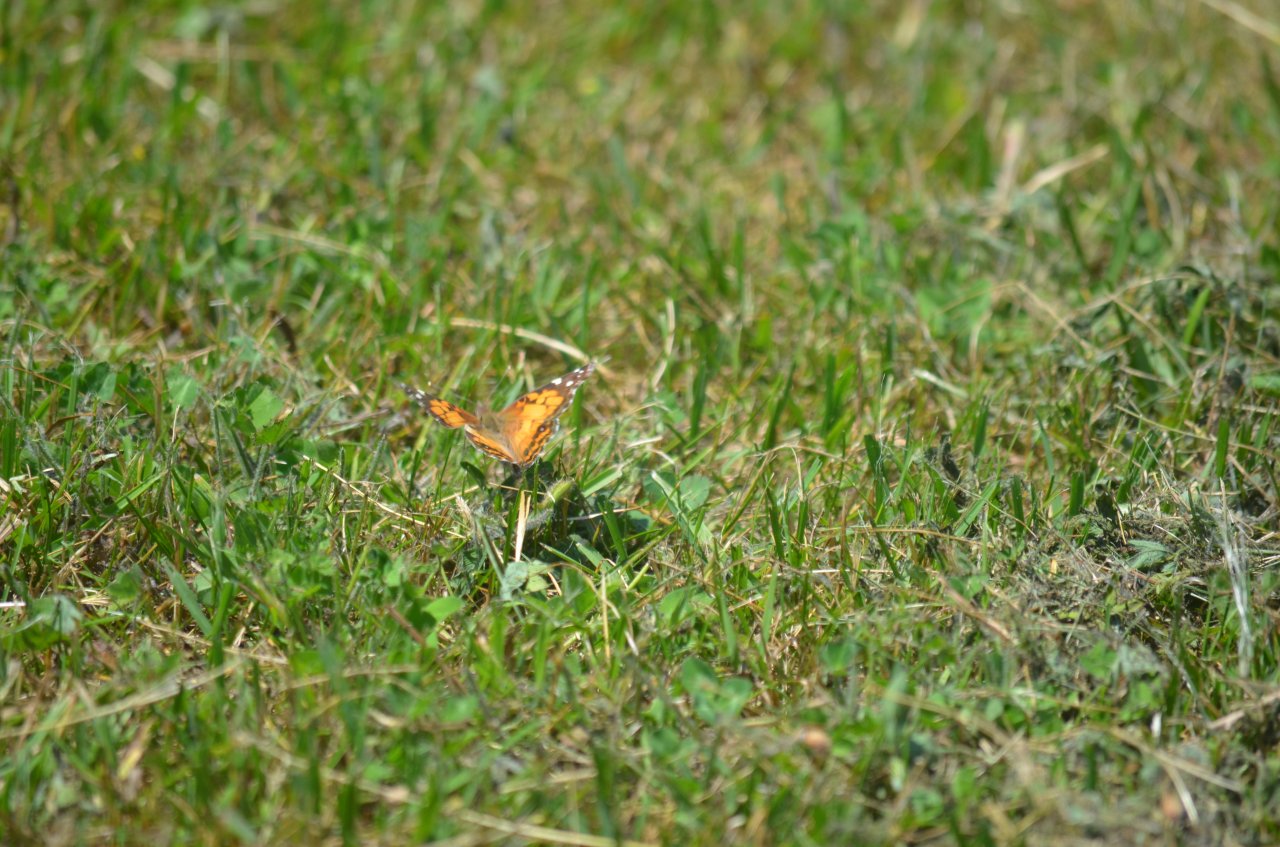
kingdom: Animalia
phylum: Arthropoda
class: Insecta
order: Lepidoptera
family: Nymphalidae
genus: Vanessa
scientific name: Vanessa virginiensis
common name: American Lady
